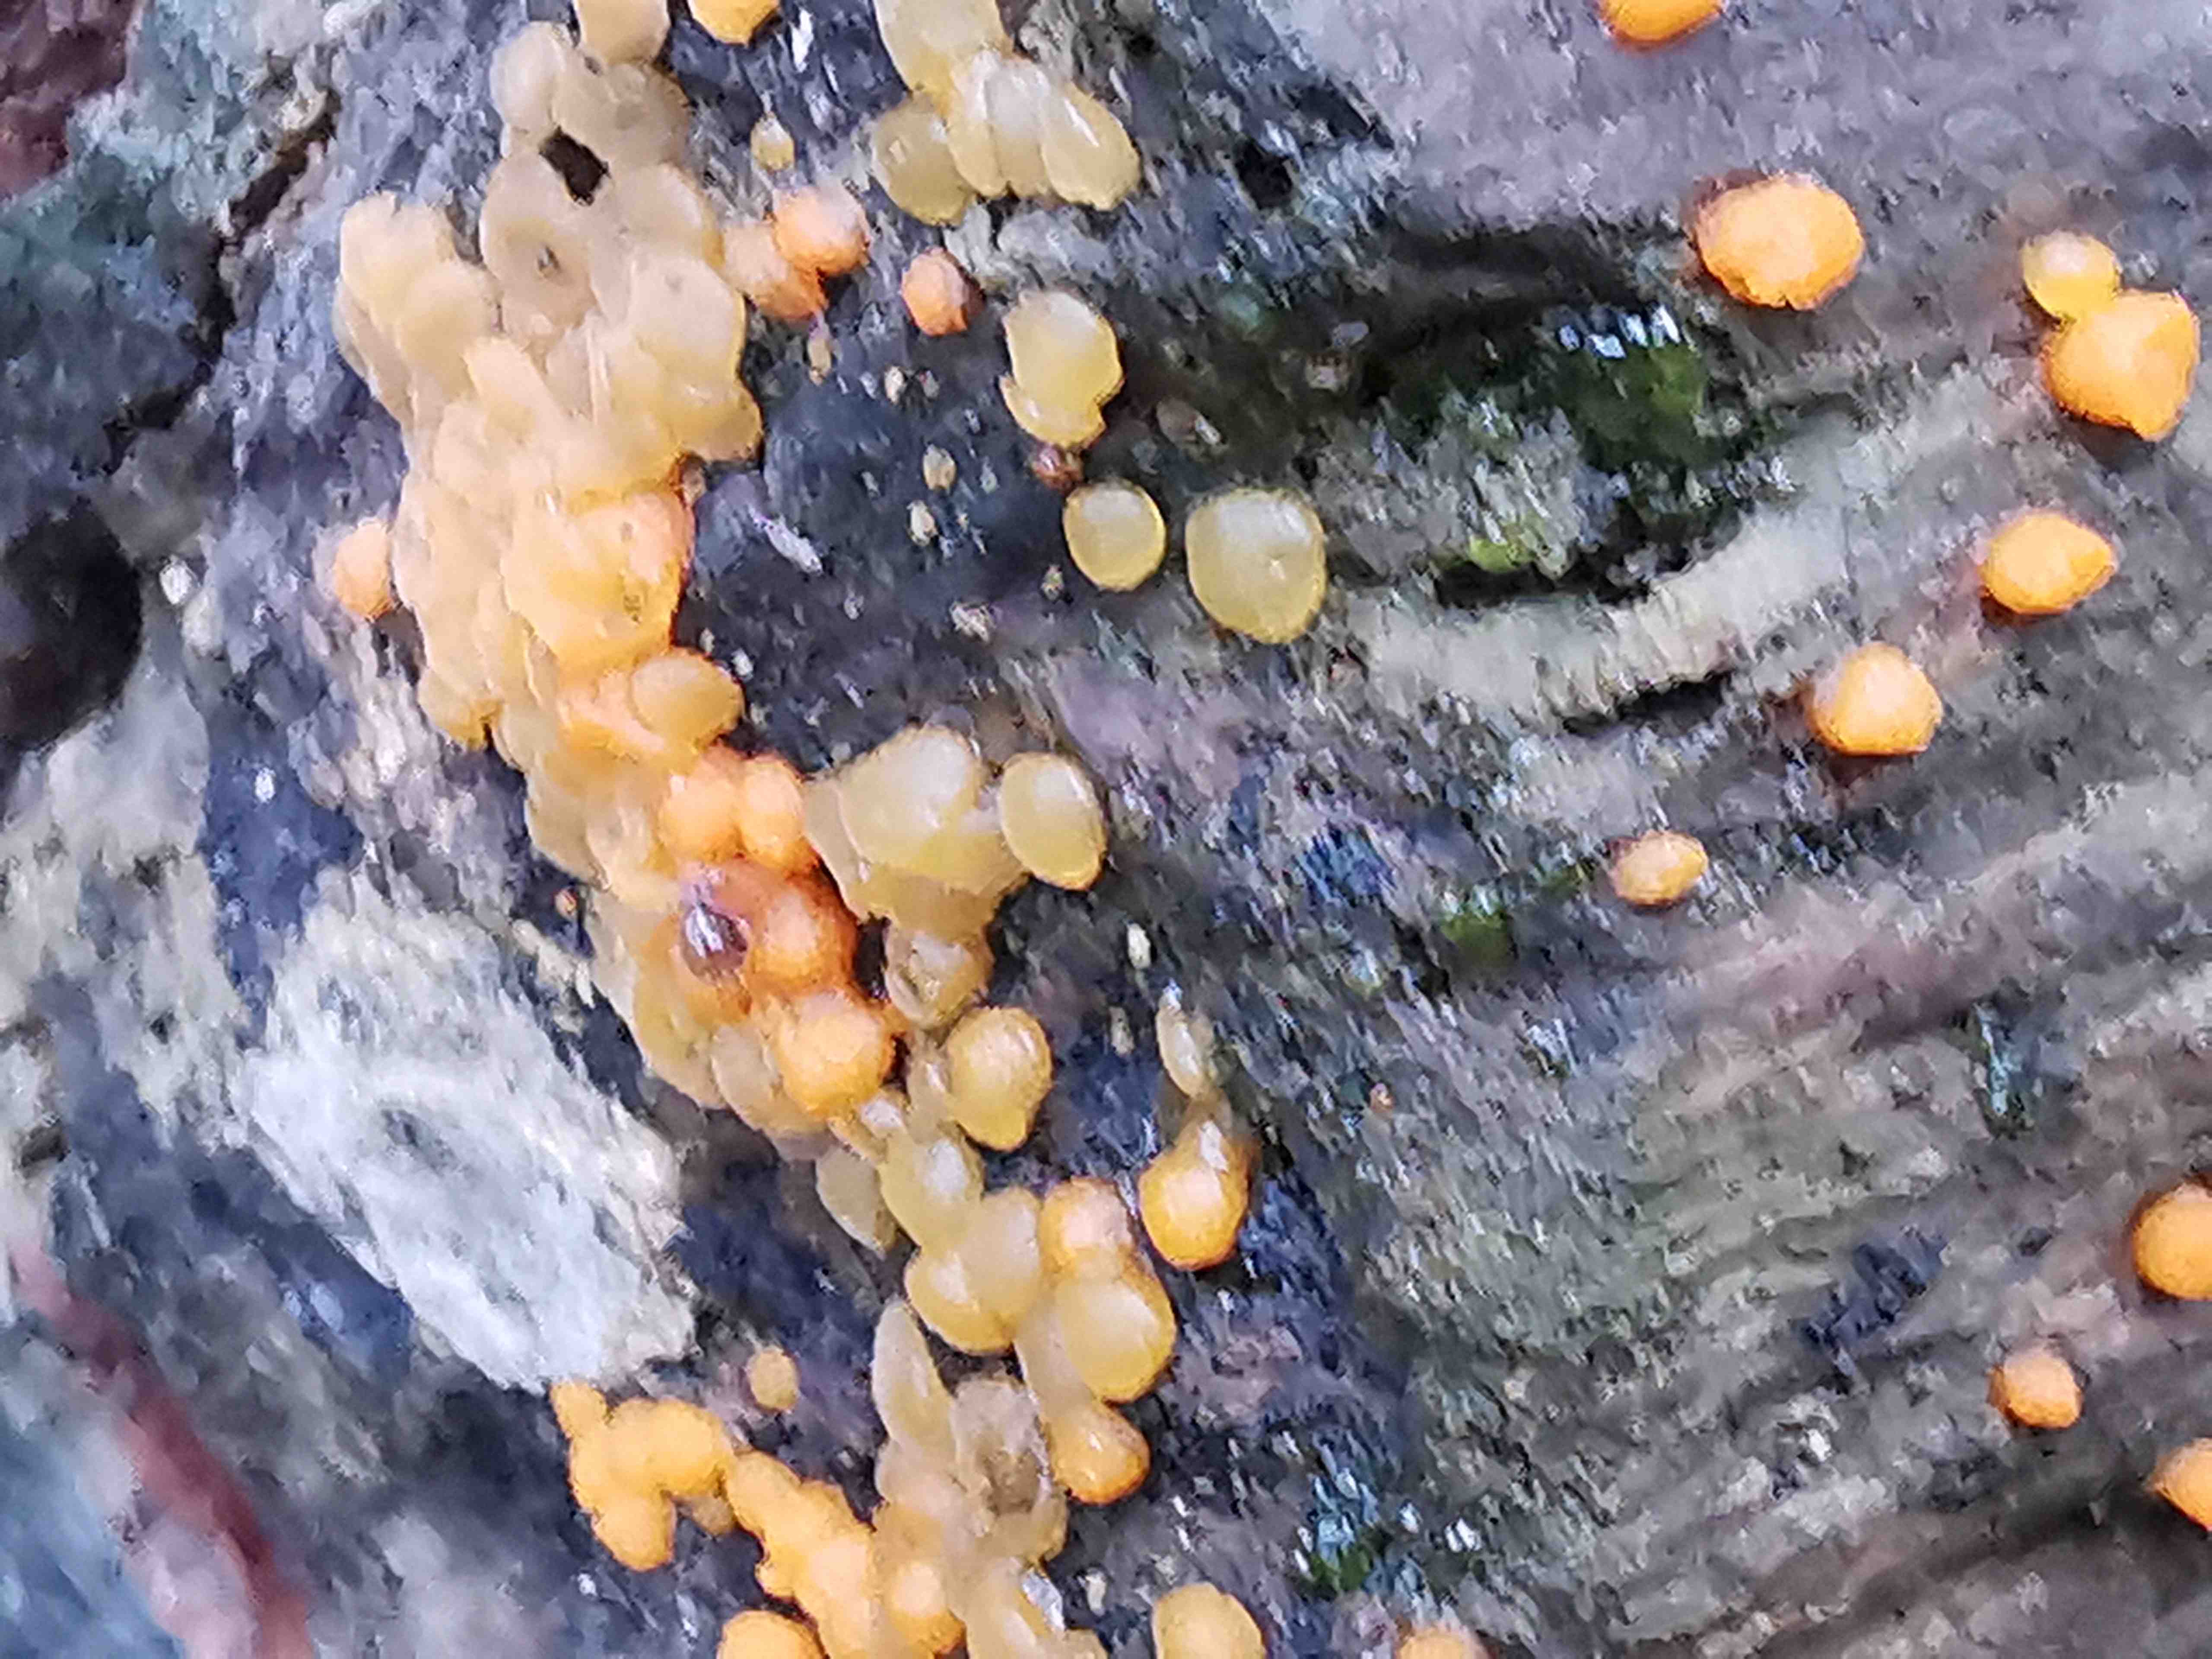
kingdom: Fungi
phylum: Basidiomycota
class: Dacrymycetes
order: Dacrymycetales
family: Dacrymycetaceae
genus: Dacrymyces
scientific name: Dacrymyces stillatus
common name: almindelig tåresvamp
